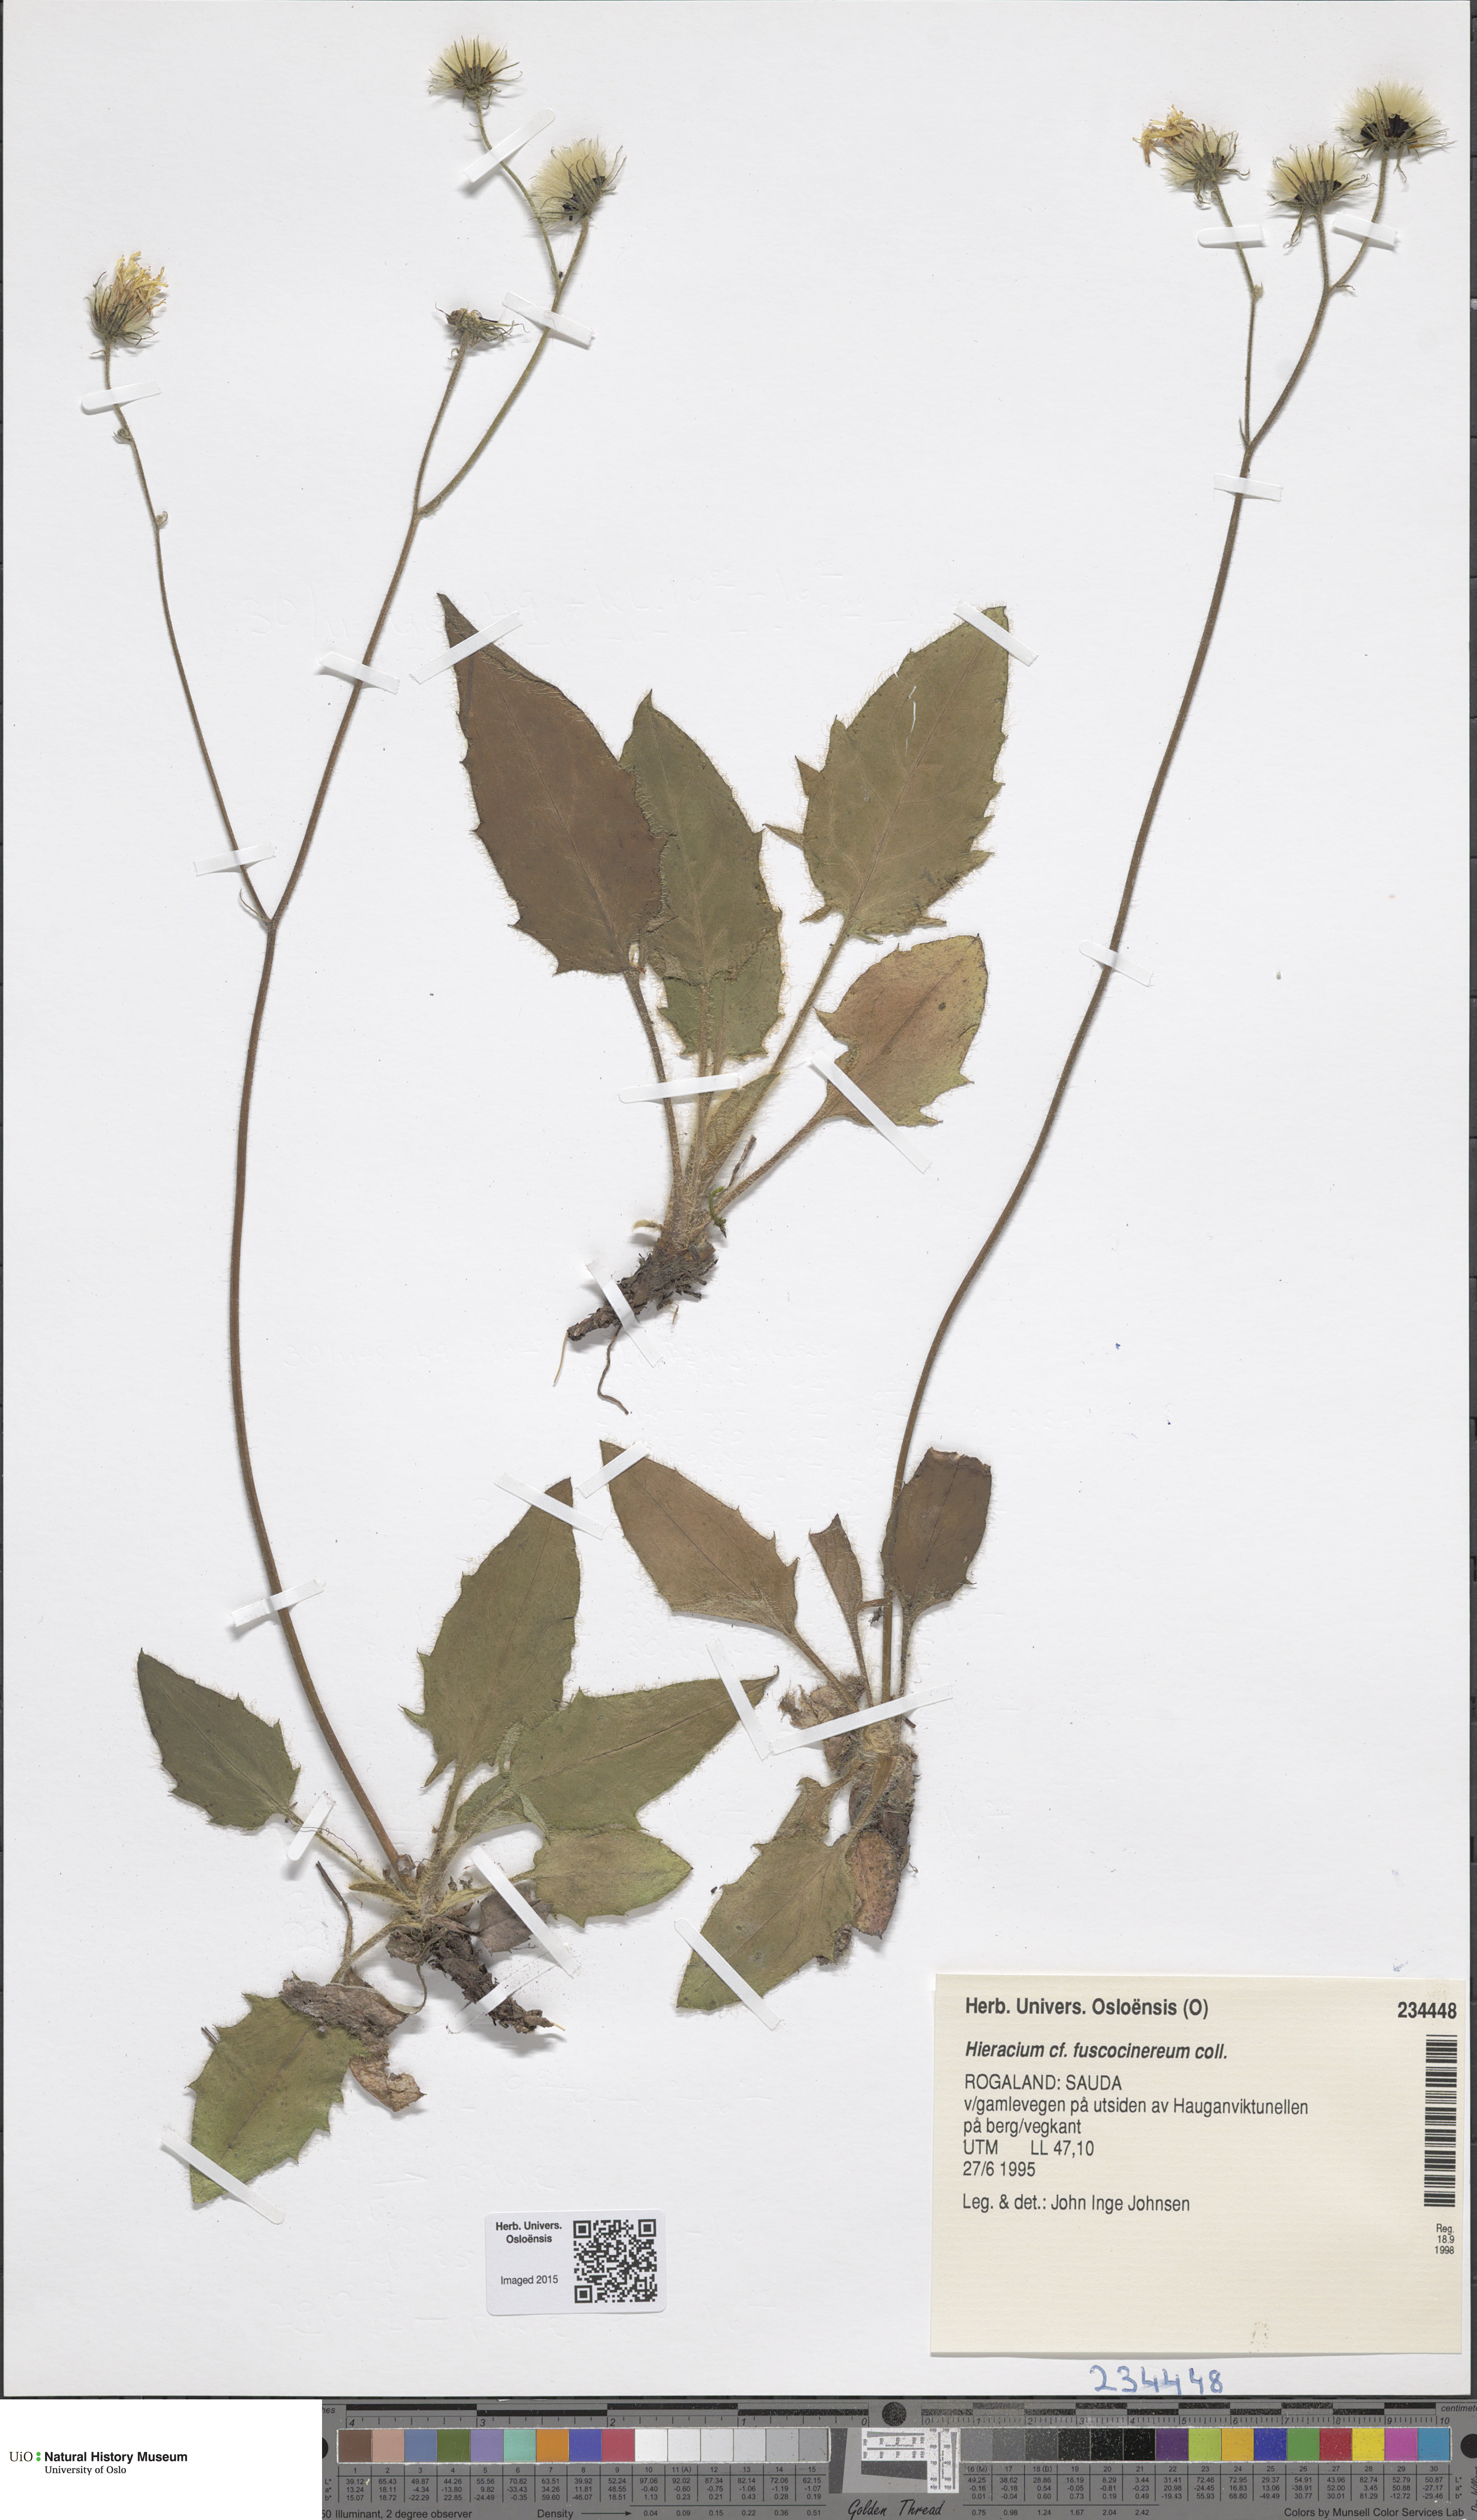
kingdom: Plantae
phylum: Tracheophyta
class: Magnoliopsida
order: Asterales
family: Asteraceae
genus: Hieracium
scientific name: Hieracium fuscocinereum
